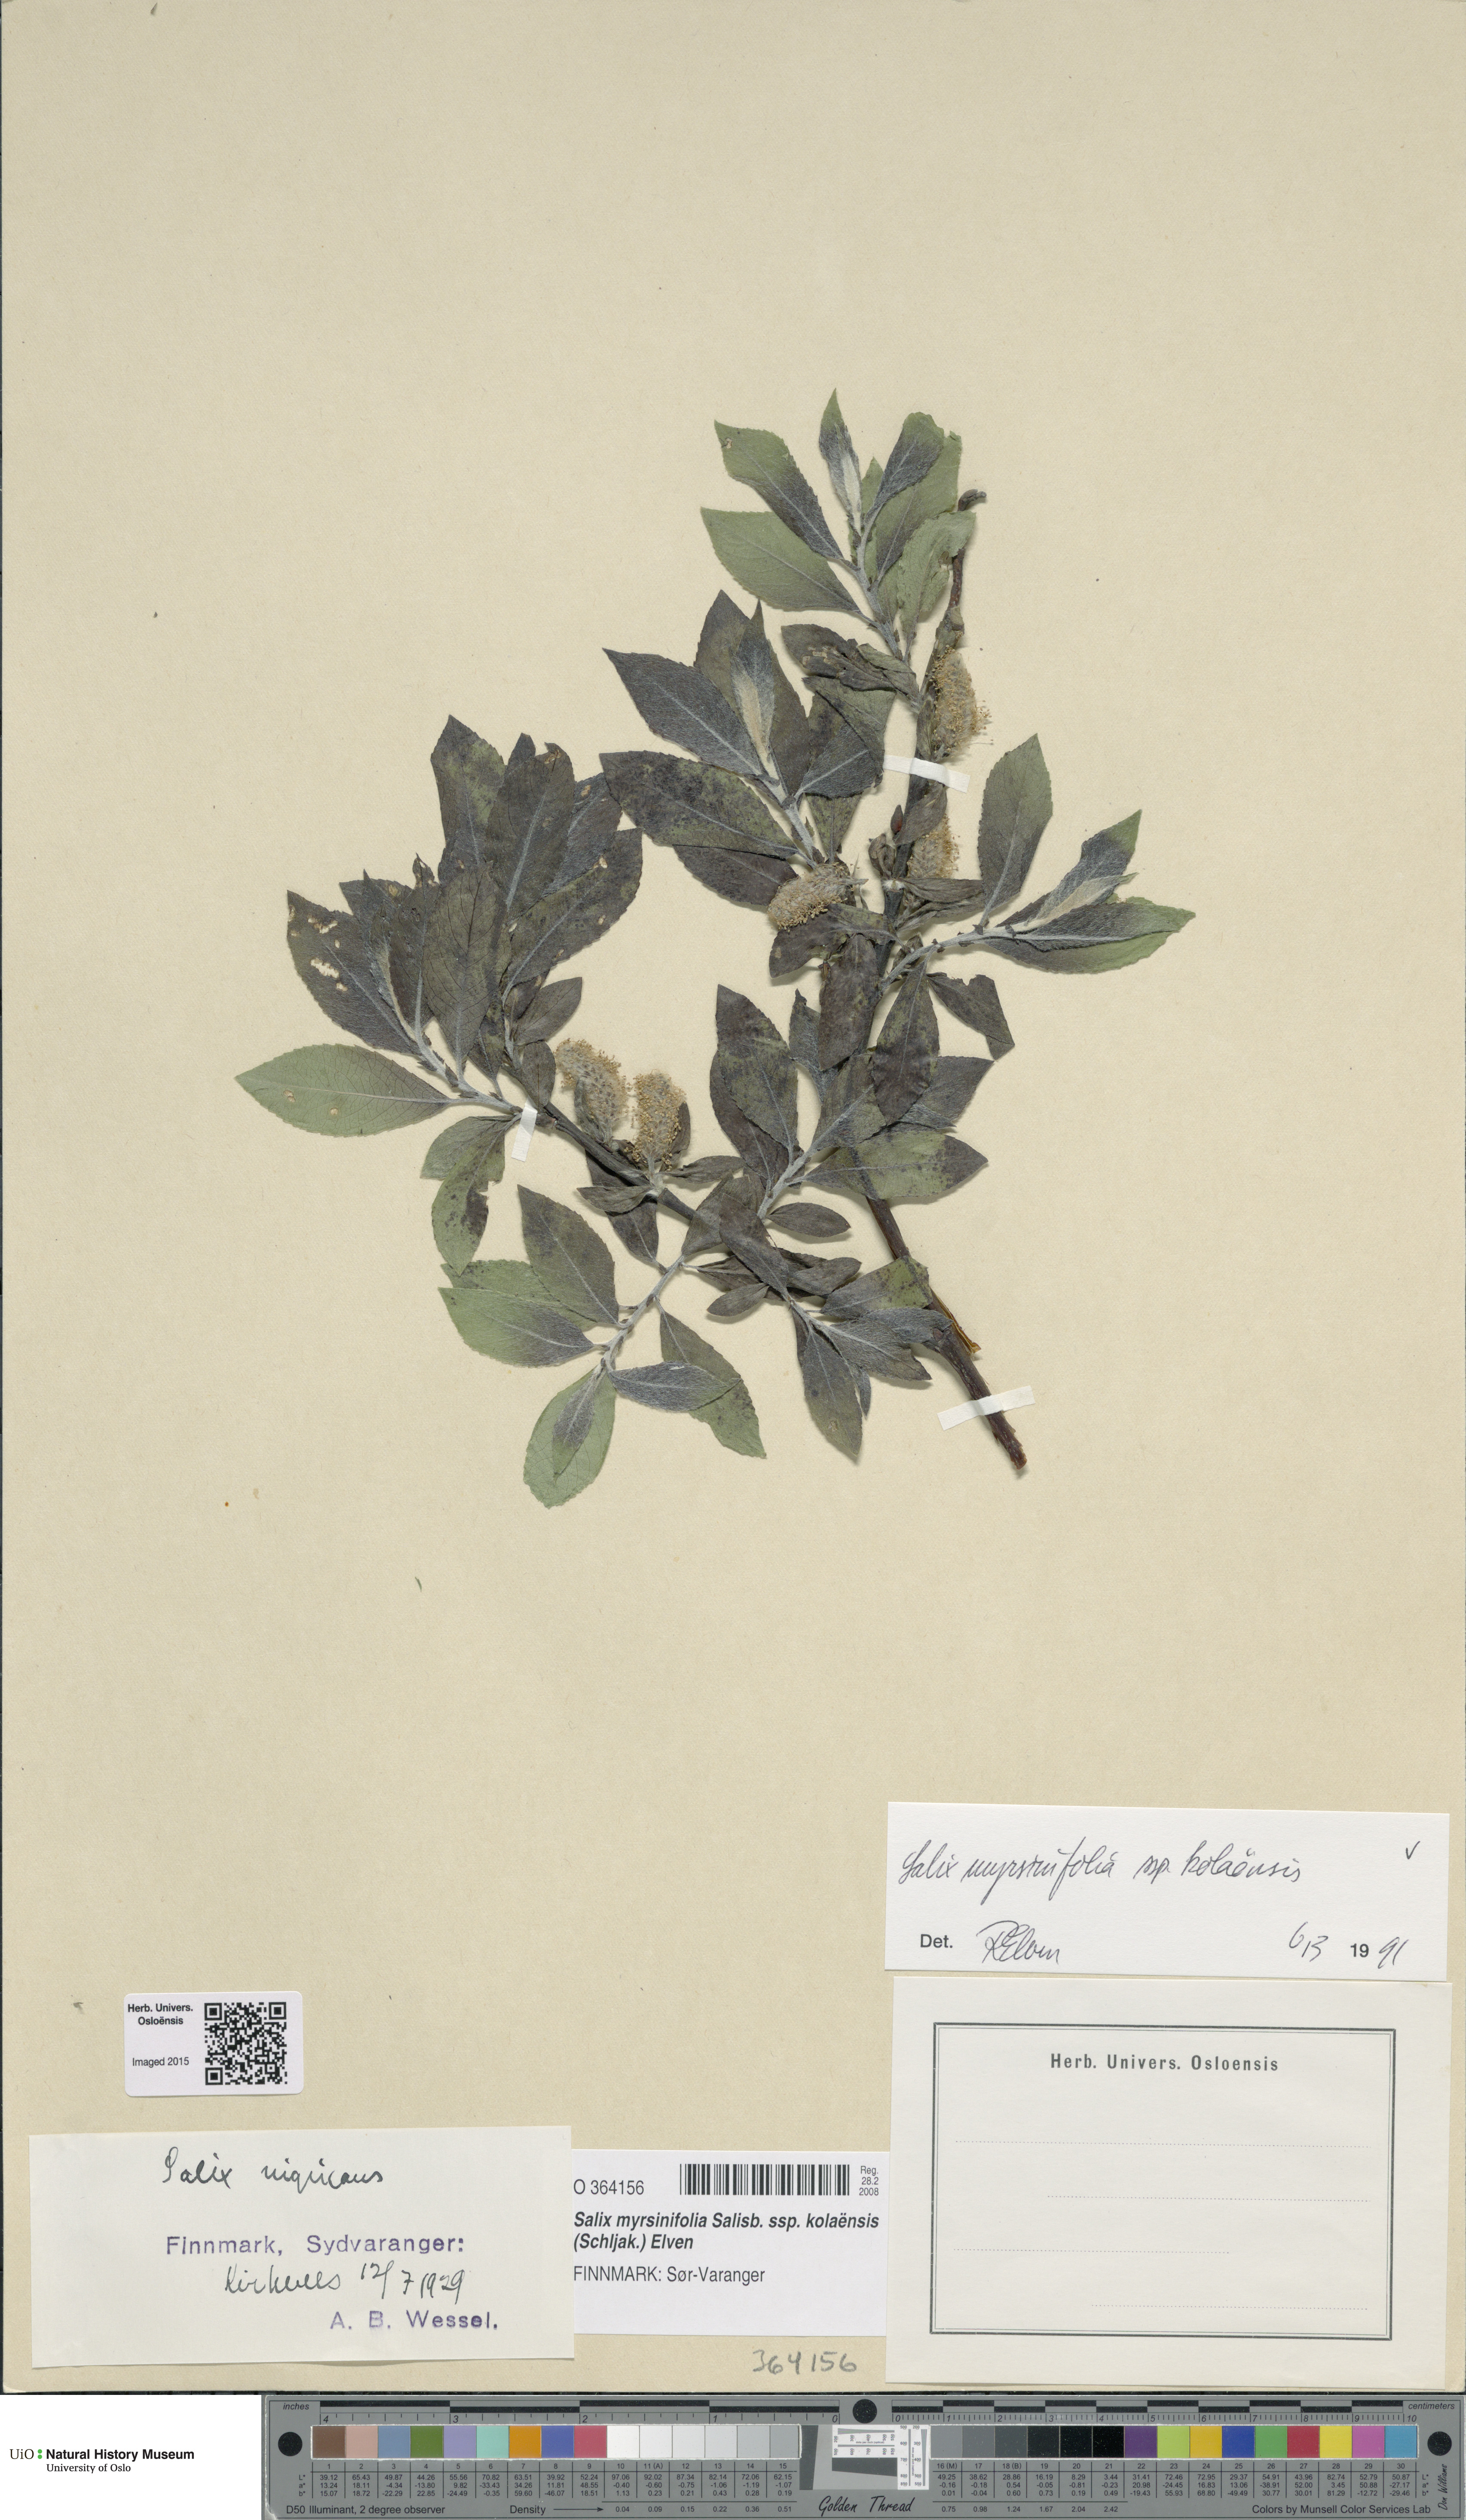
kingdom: Plantae
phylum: Tracheophyta
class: Magnoliopsida
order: Malpighiales
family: Salicaceae
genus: Salix
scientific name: Salix myrsinifolia
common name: Dark-leaved willow
